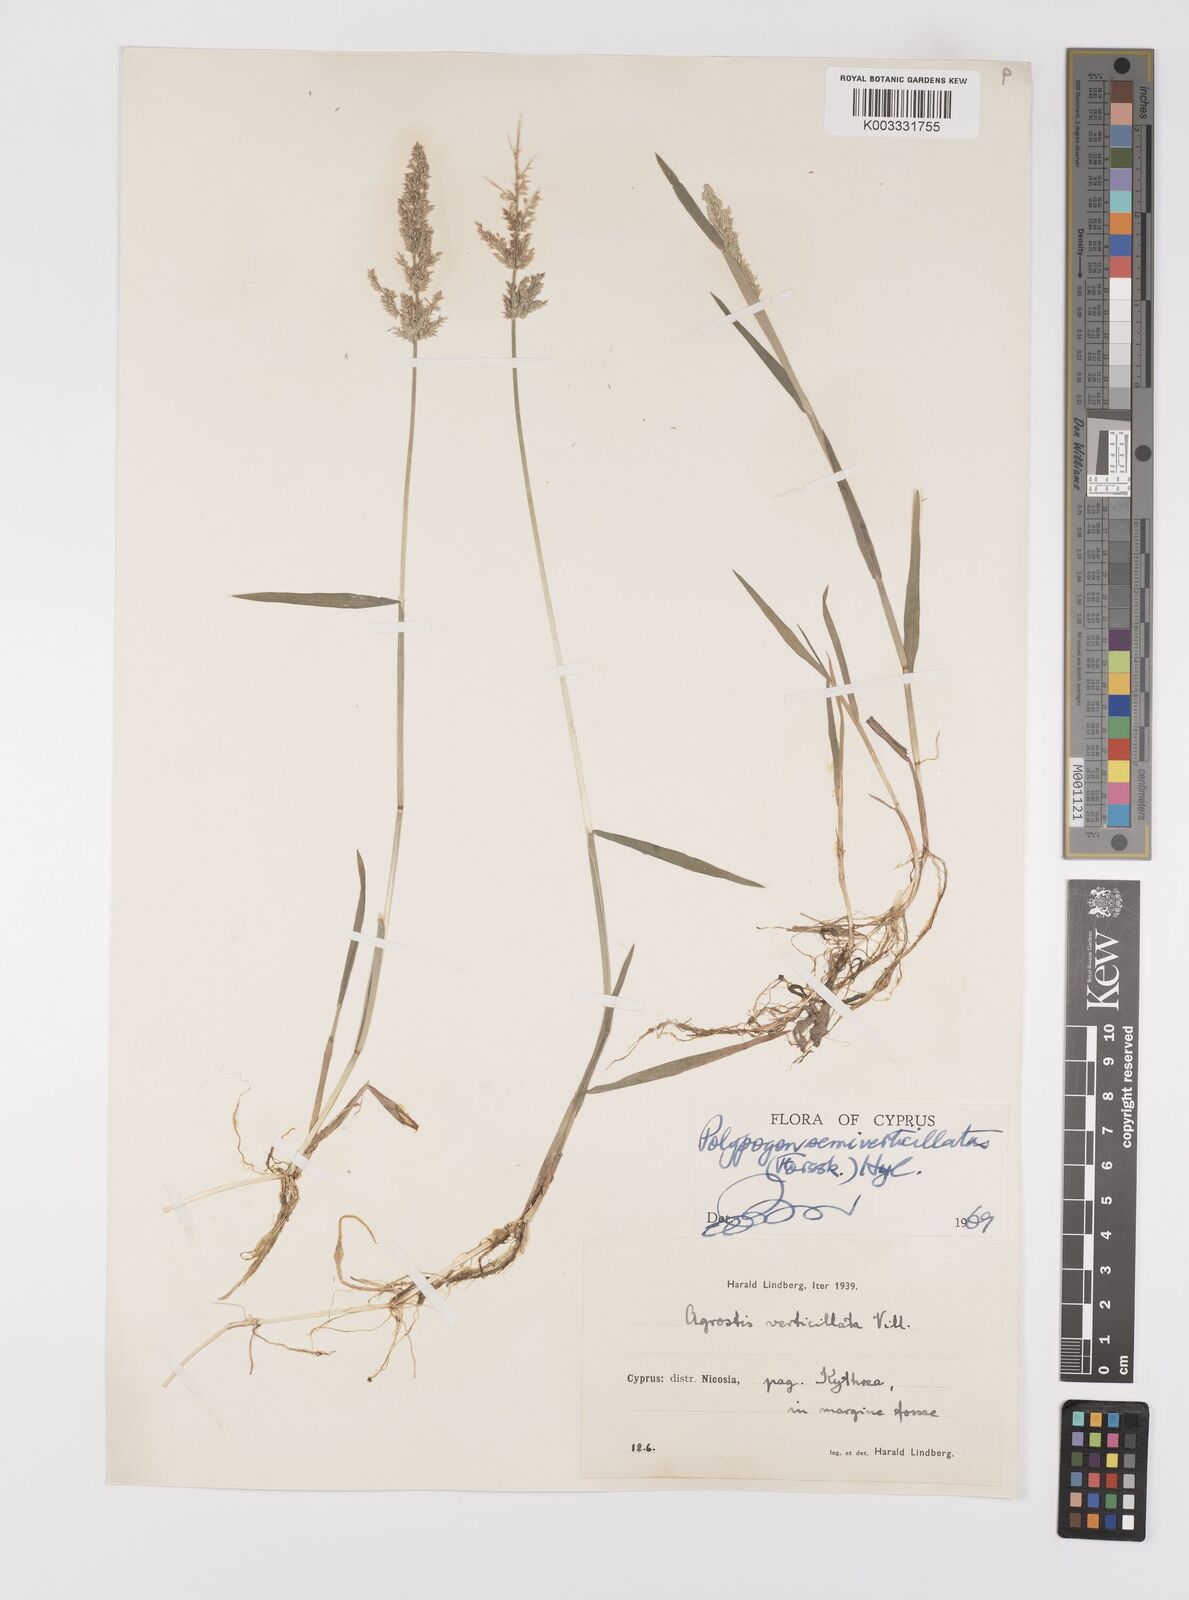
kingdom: Plantae
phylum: Tracheophyta
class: Liliopsida
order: Poales
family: Poaceae
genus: Polypogon
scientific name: Polypogon viridis
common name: Water bent
